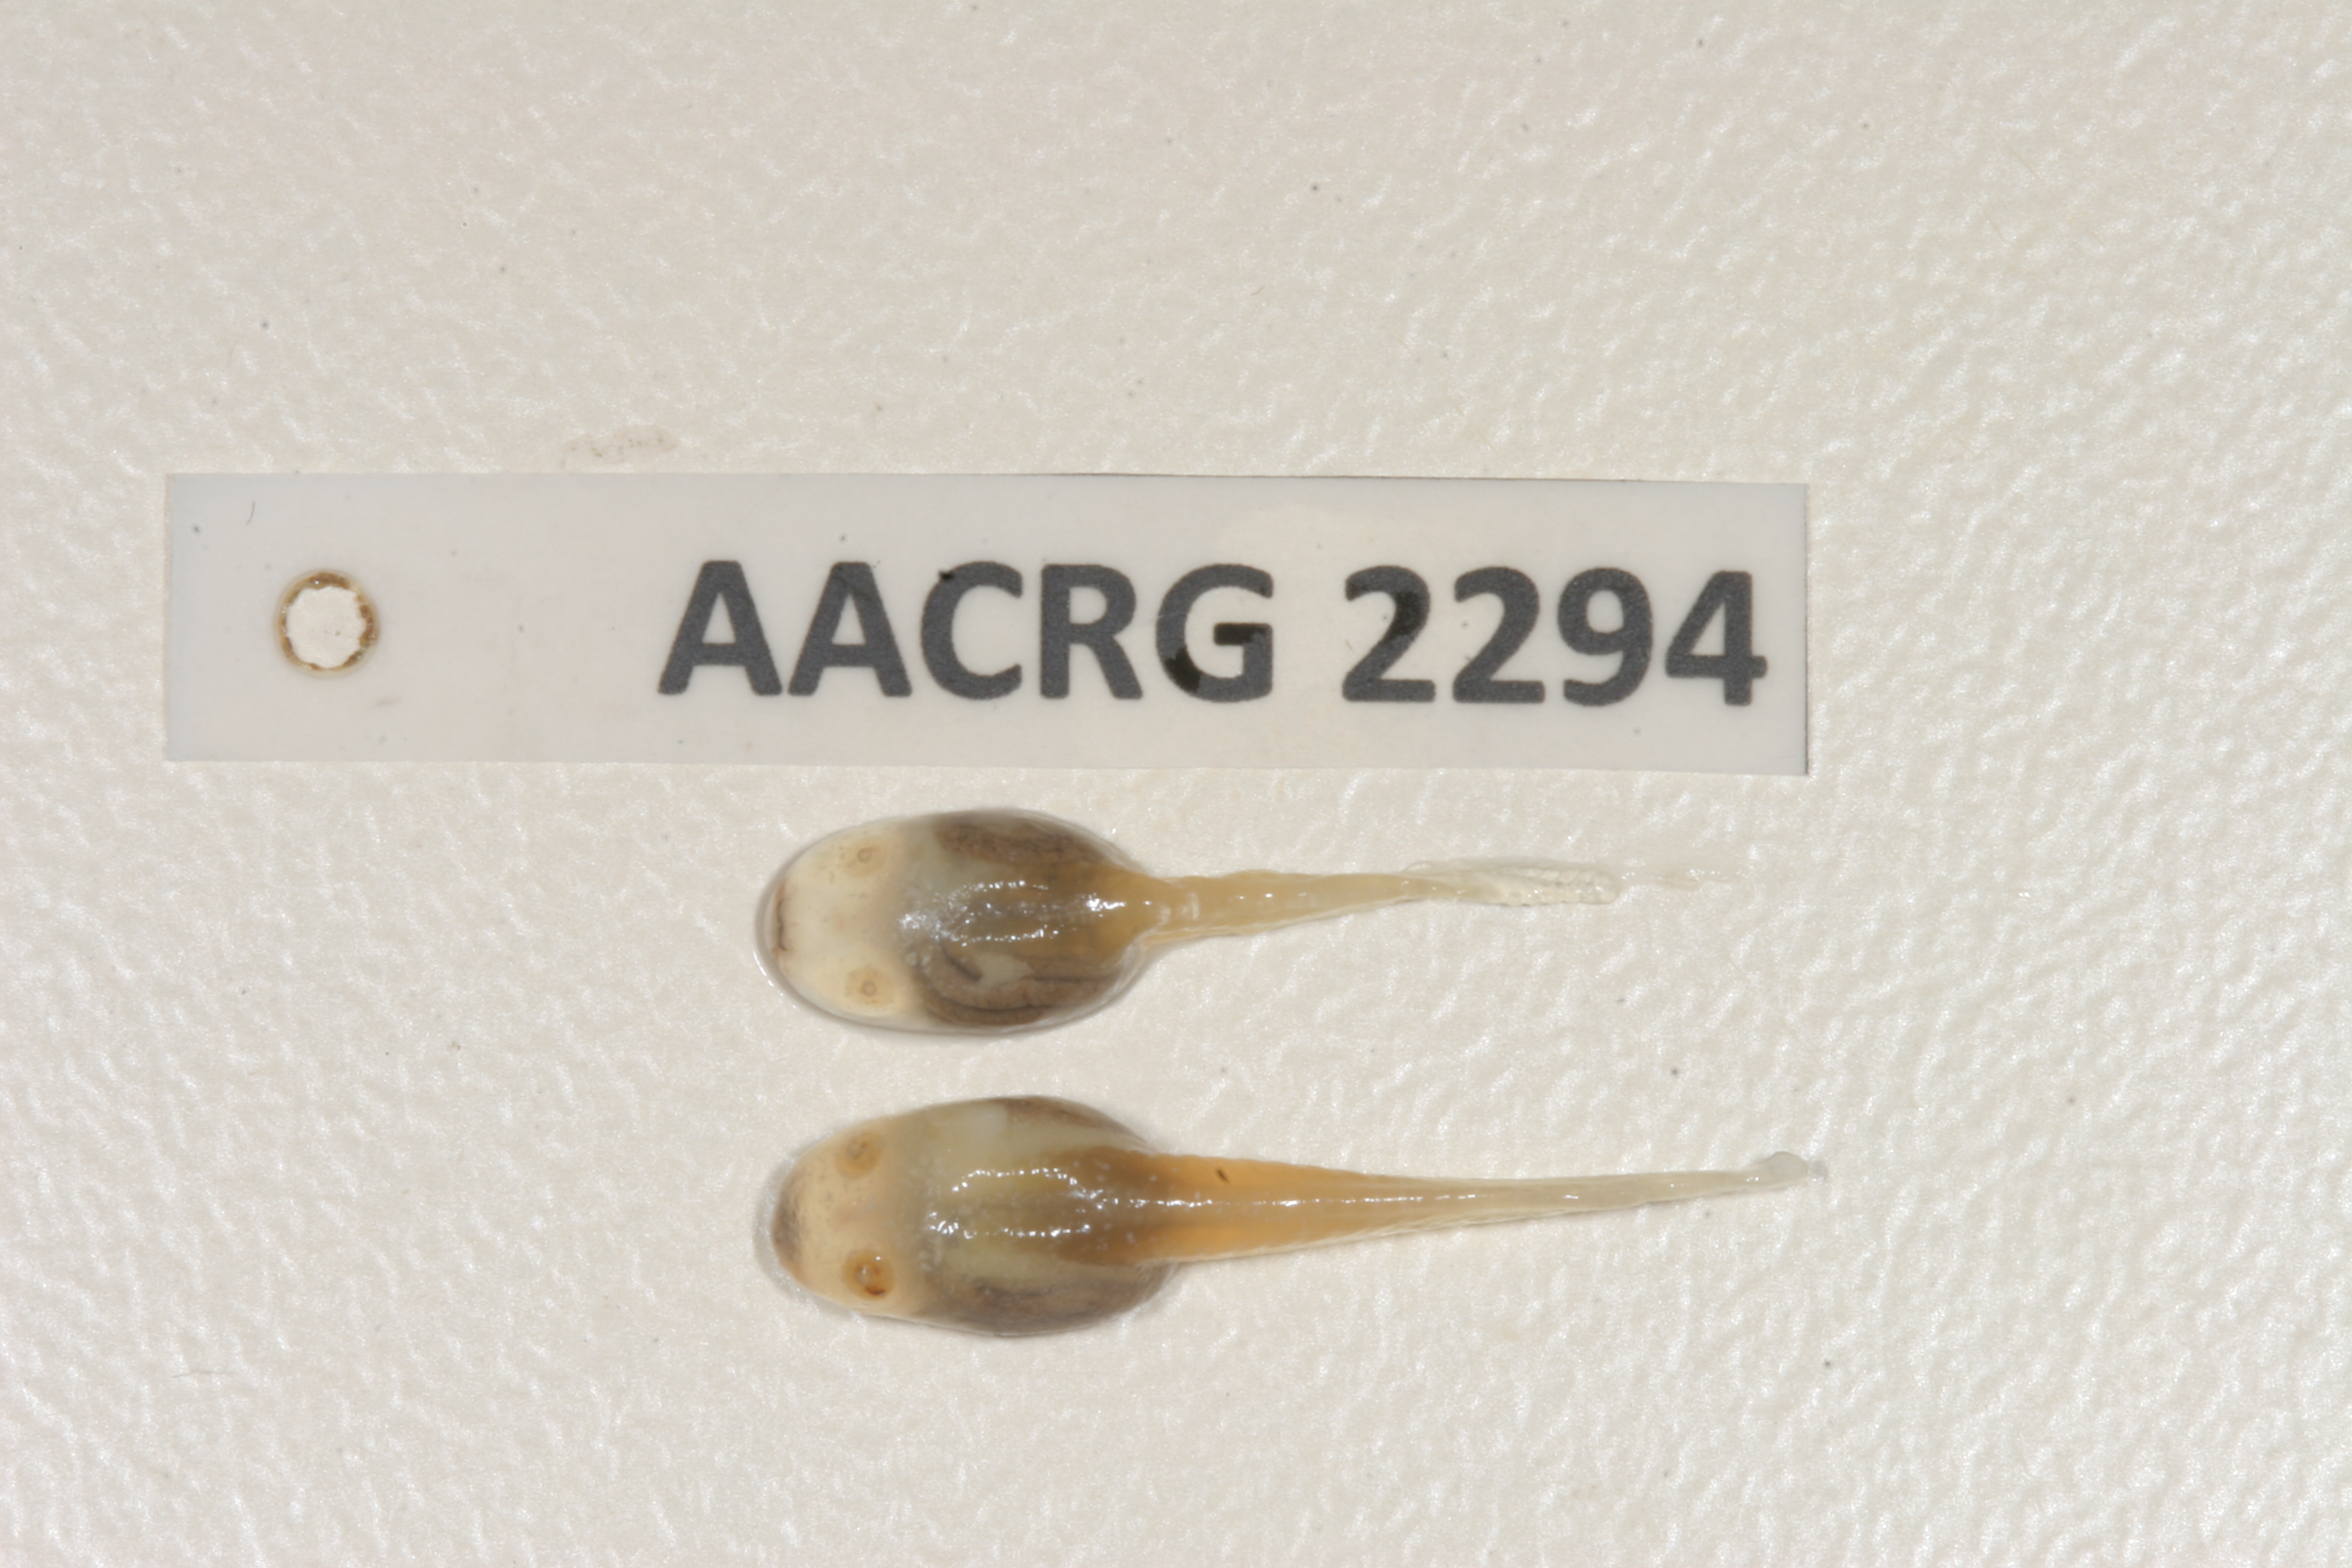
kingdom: Animalia
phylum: Chordata
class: Amphibia
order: Anura
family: Pyxicephalidae
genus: Cacosternum
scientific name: Cacosternum namaquense
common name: Namaqua caco
